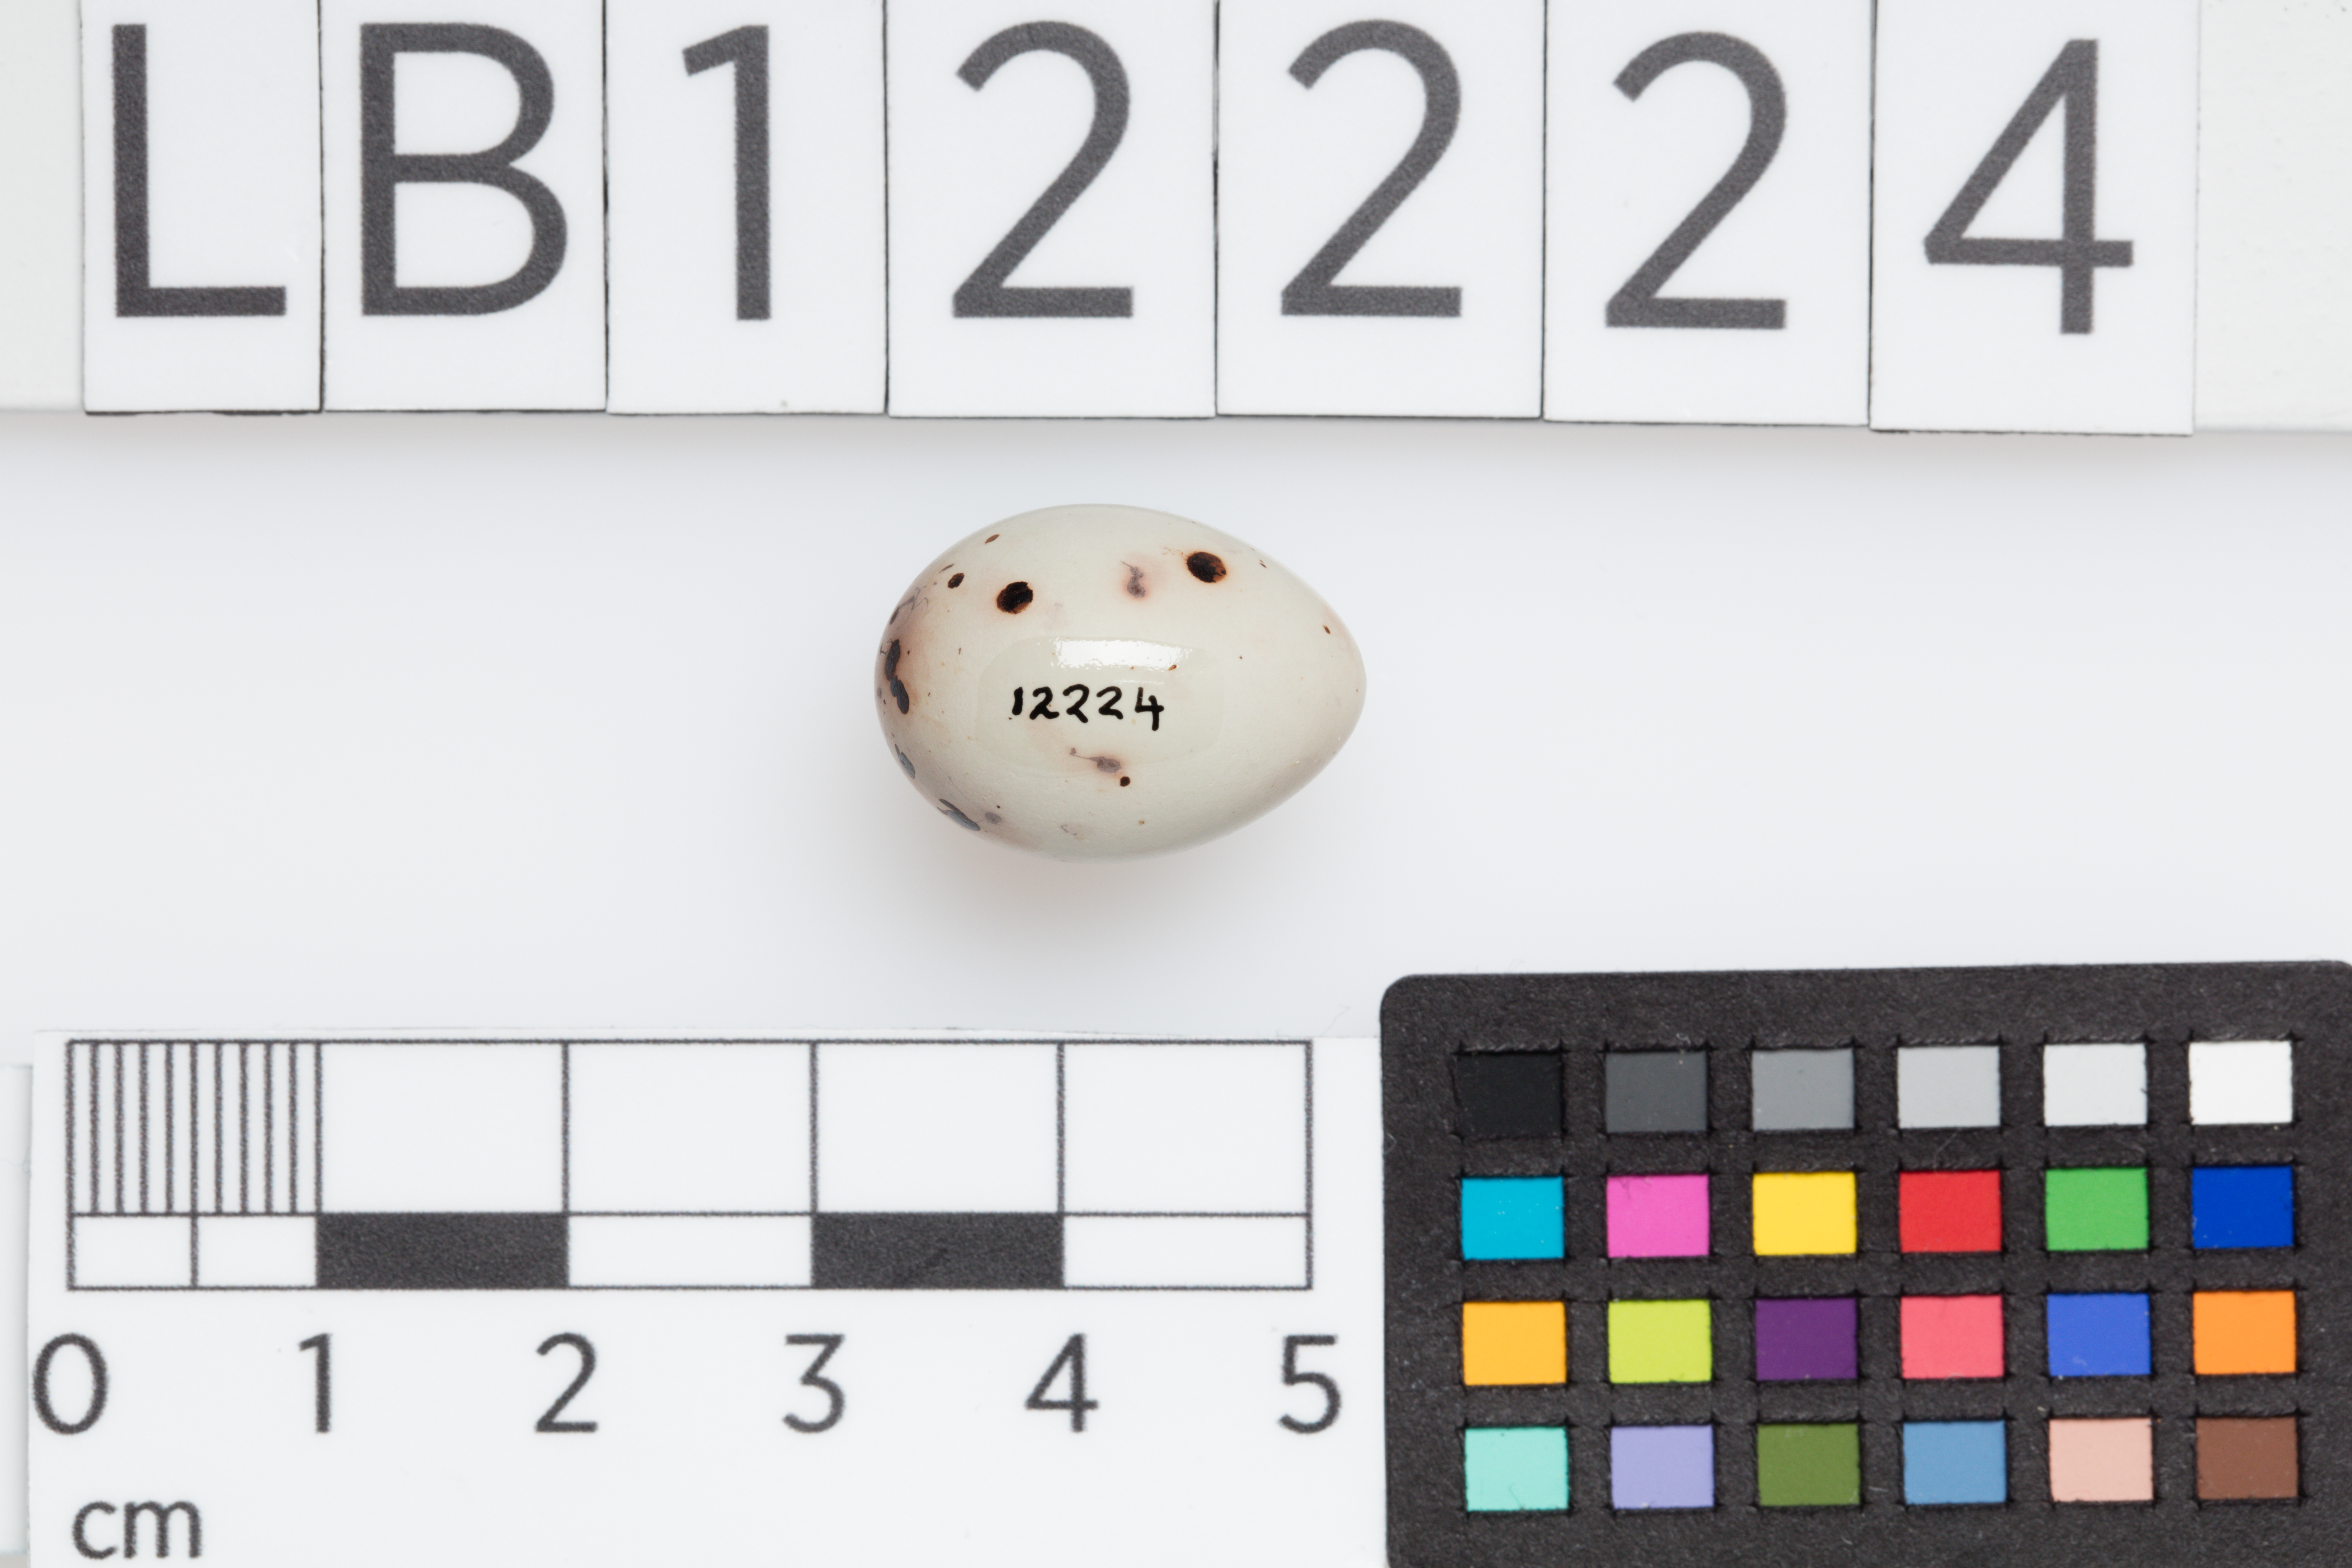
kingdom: Animalia
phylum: Chordata
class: Aves
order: Passeriformes
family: Fringillidae
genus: Fringilla
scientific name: Fringilla montifringilla
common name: Brambling
